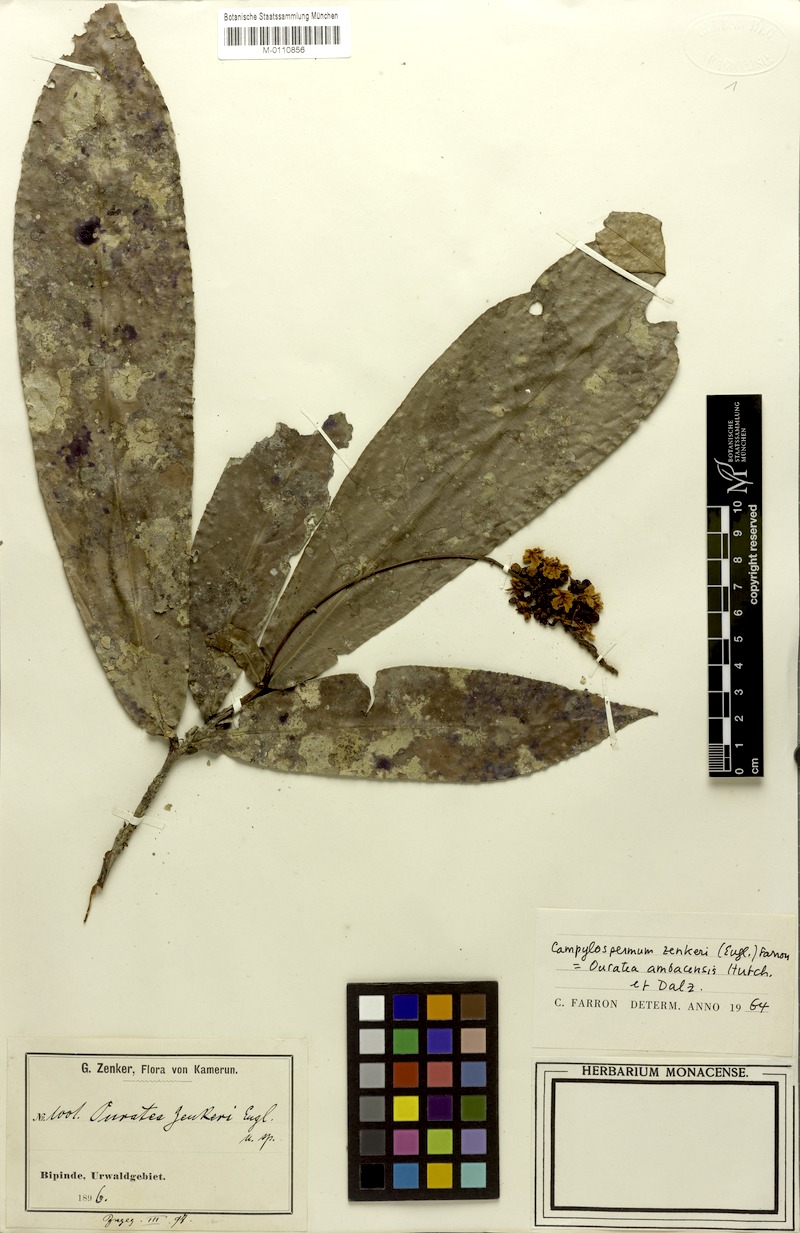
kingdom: Plantae
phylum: Tracheophyta
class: Magnoliopsida
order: Malpighiales
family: Ochnaceae
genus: Campylospermum
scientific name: Campylospermum zenkeri
